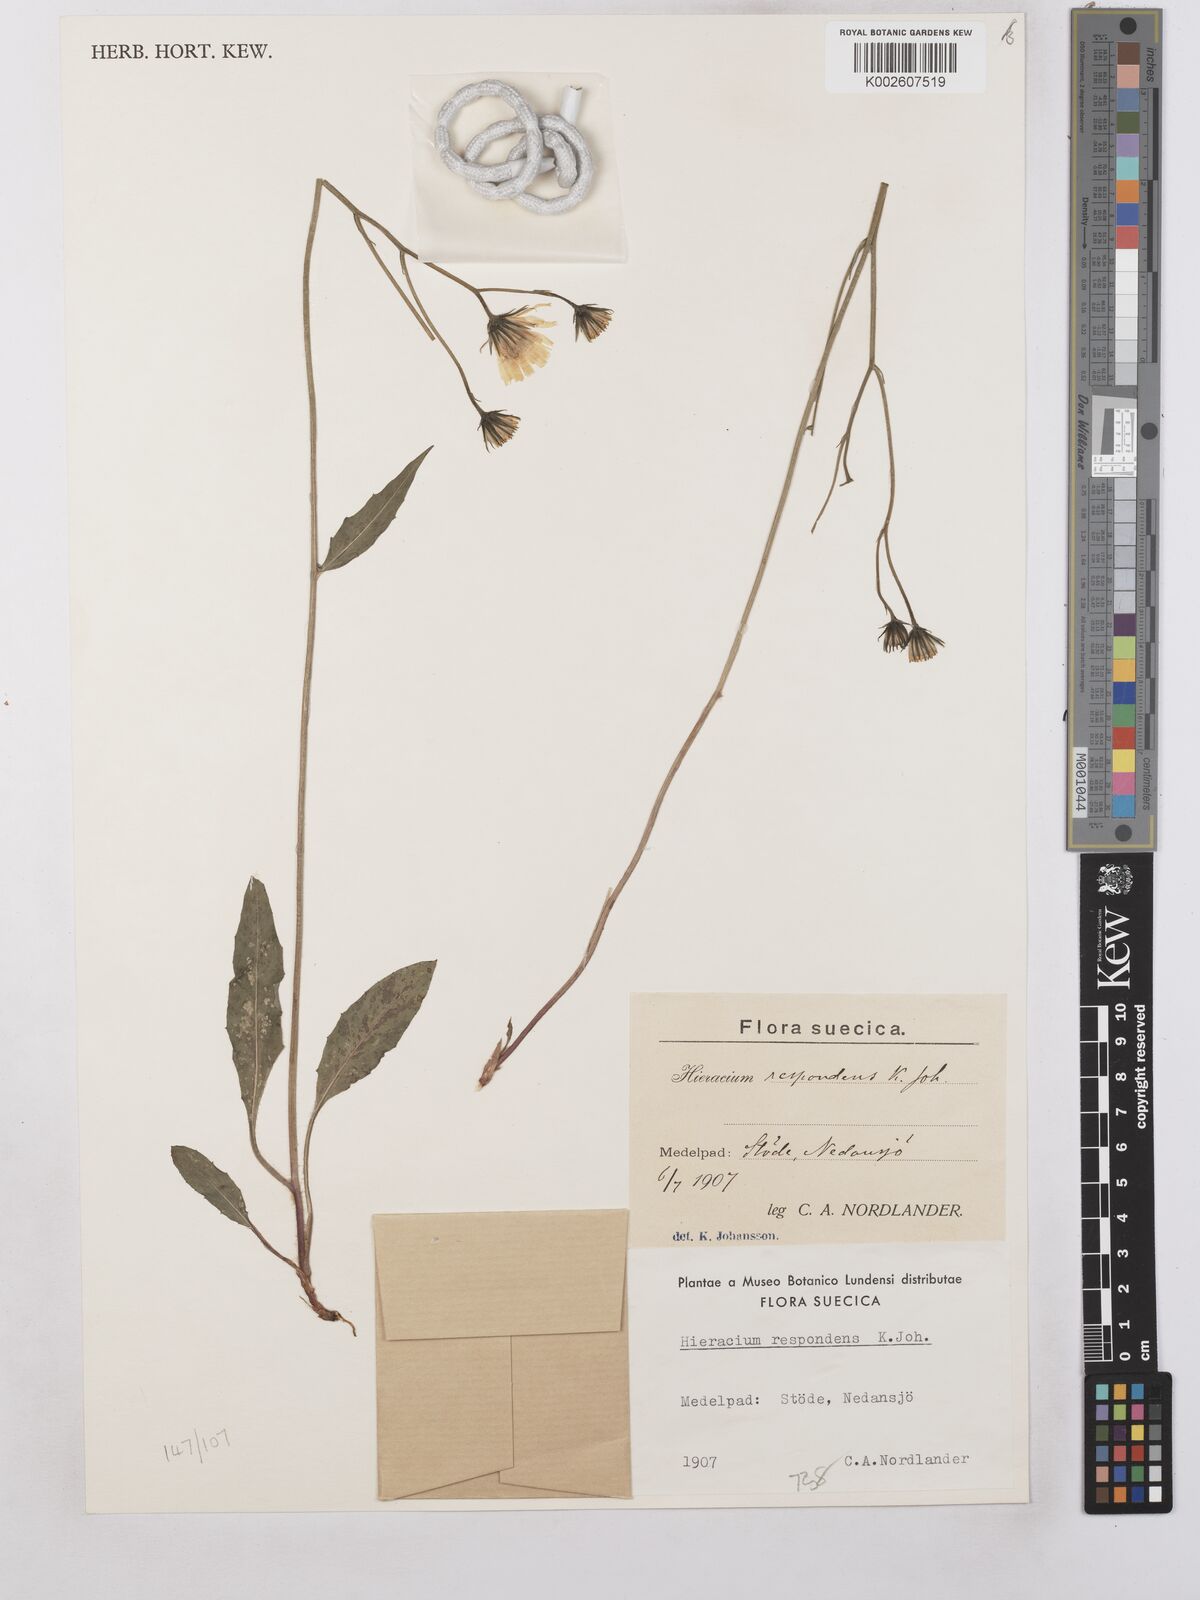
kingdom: Plantae
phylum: Tracheophyta
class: Magnoliopsida
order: Asterales
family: Asteraceae
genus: Hieracium
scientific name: Hieracium caesium
